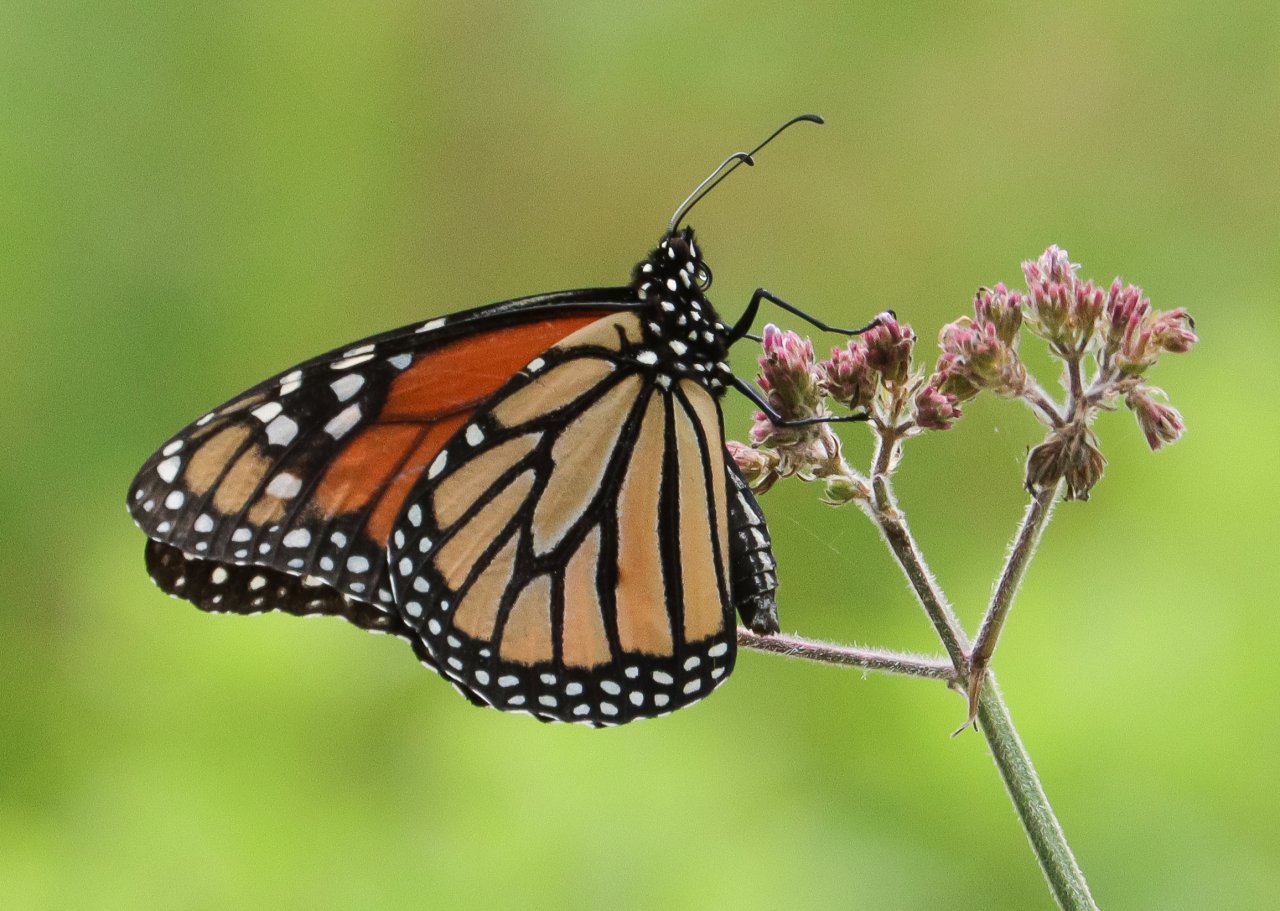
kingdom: Animalia
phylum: Arthropoda
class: Insecta
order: Lepidoptera
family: Nymphalidae
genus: Danaus
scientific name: Danaus plexippus
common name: Monarch
